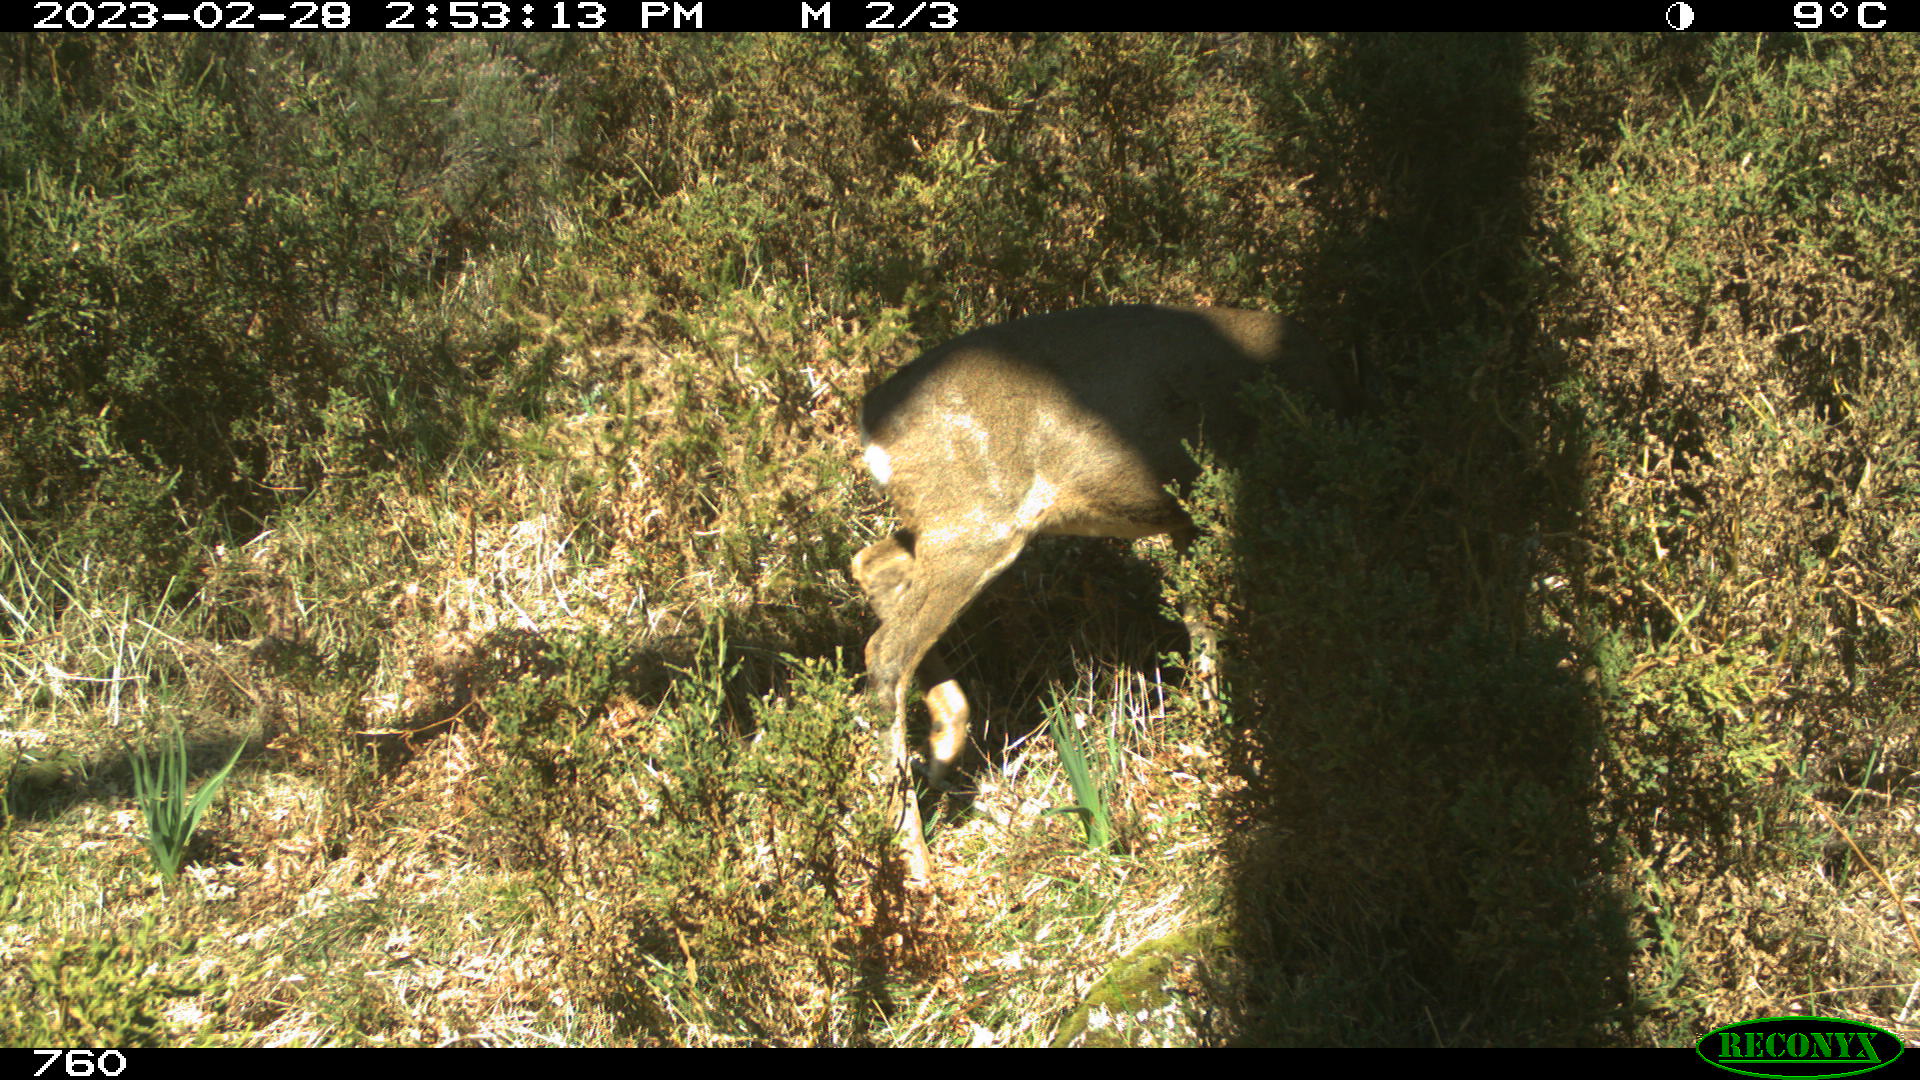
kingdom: Animalia
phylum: Chordata
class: Mammalia
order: Artiodactyla
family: Cervidae
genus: Capreolus
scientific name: Capreolus capreolus
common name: Western roe deer
